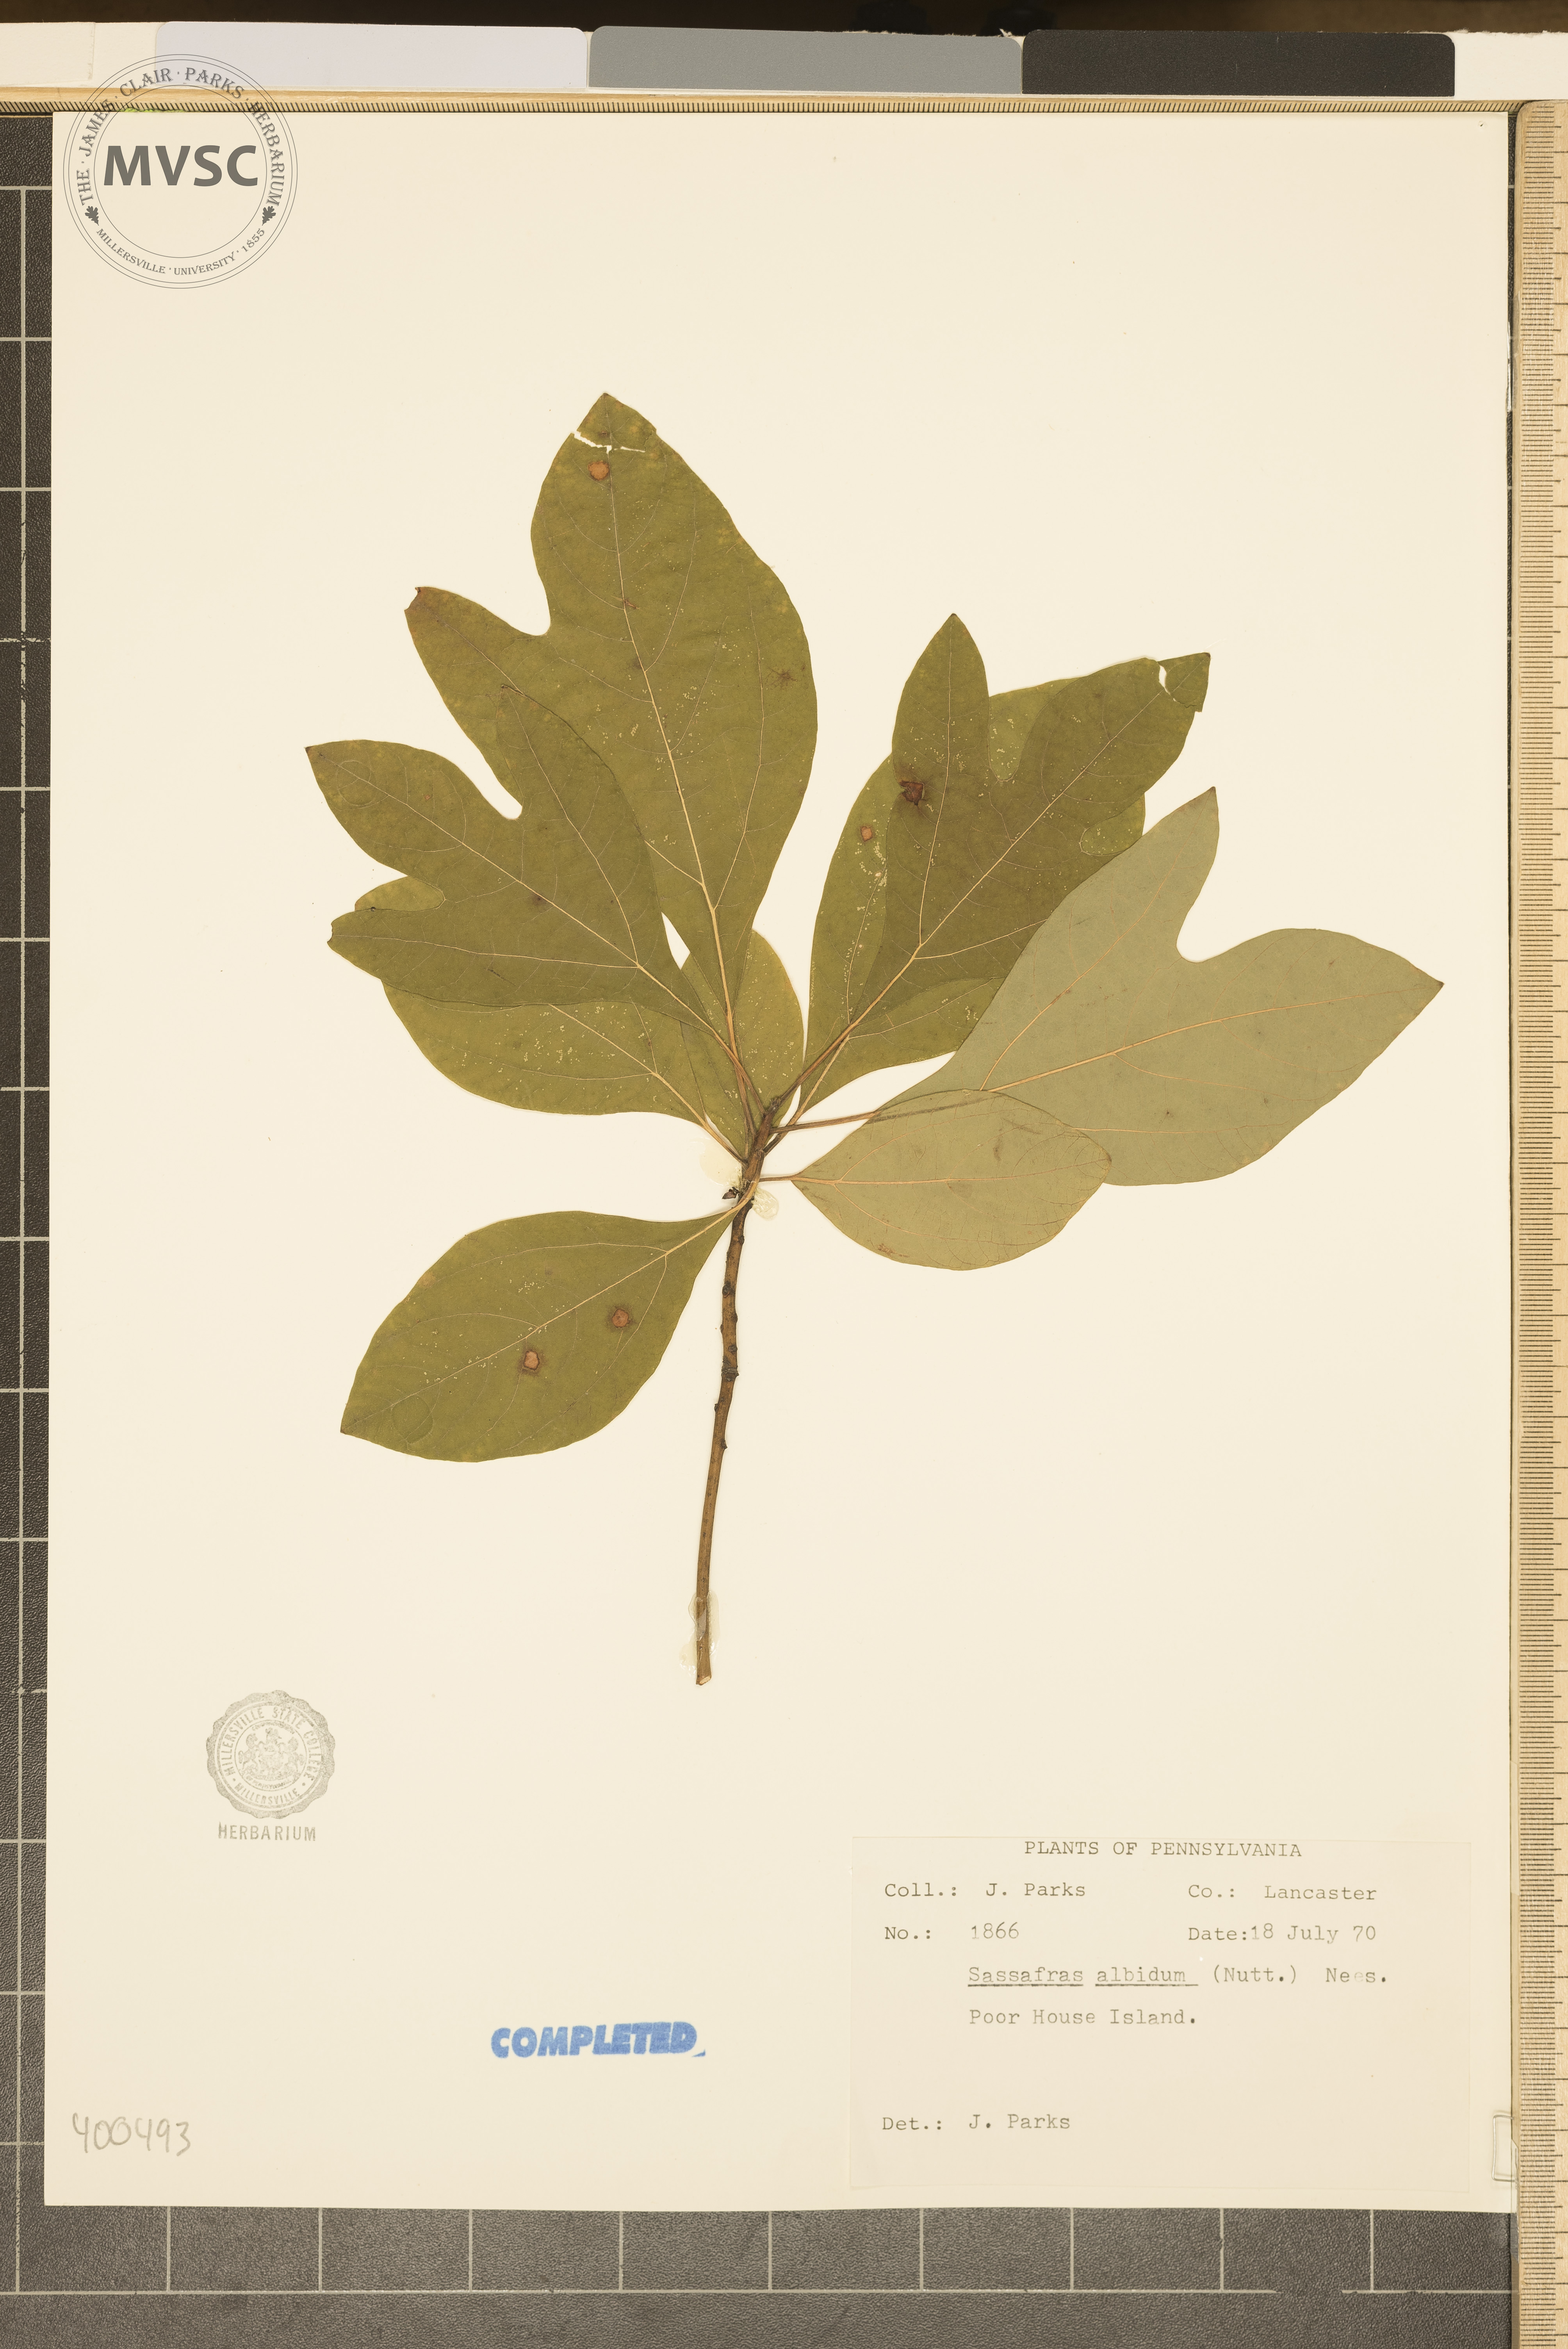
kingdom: Plantae
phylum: Tracheophyta
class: Magnoliopsida
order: Laurales
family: Lauraceae
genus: Sassafras
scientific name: Sassafras albidum
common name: sassafras
